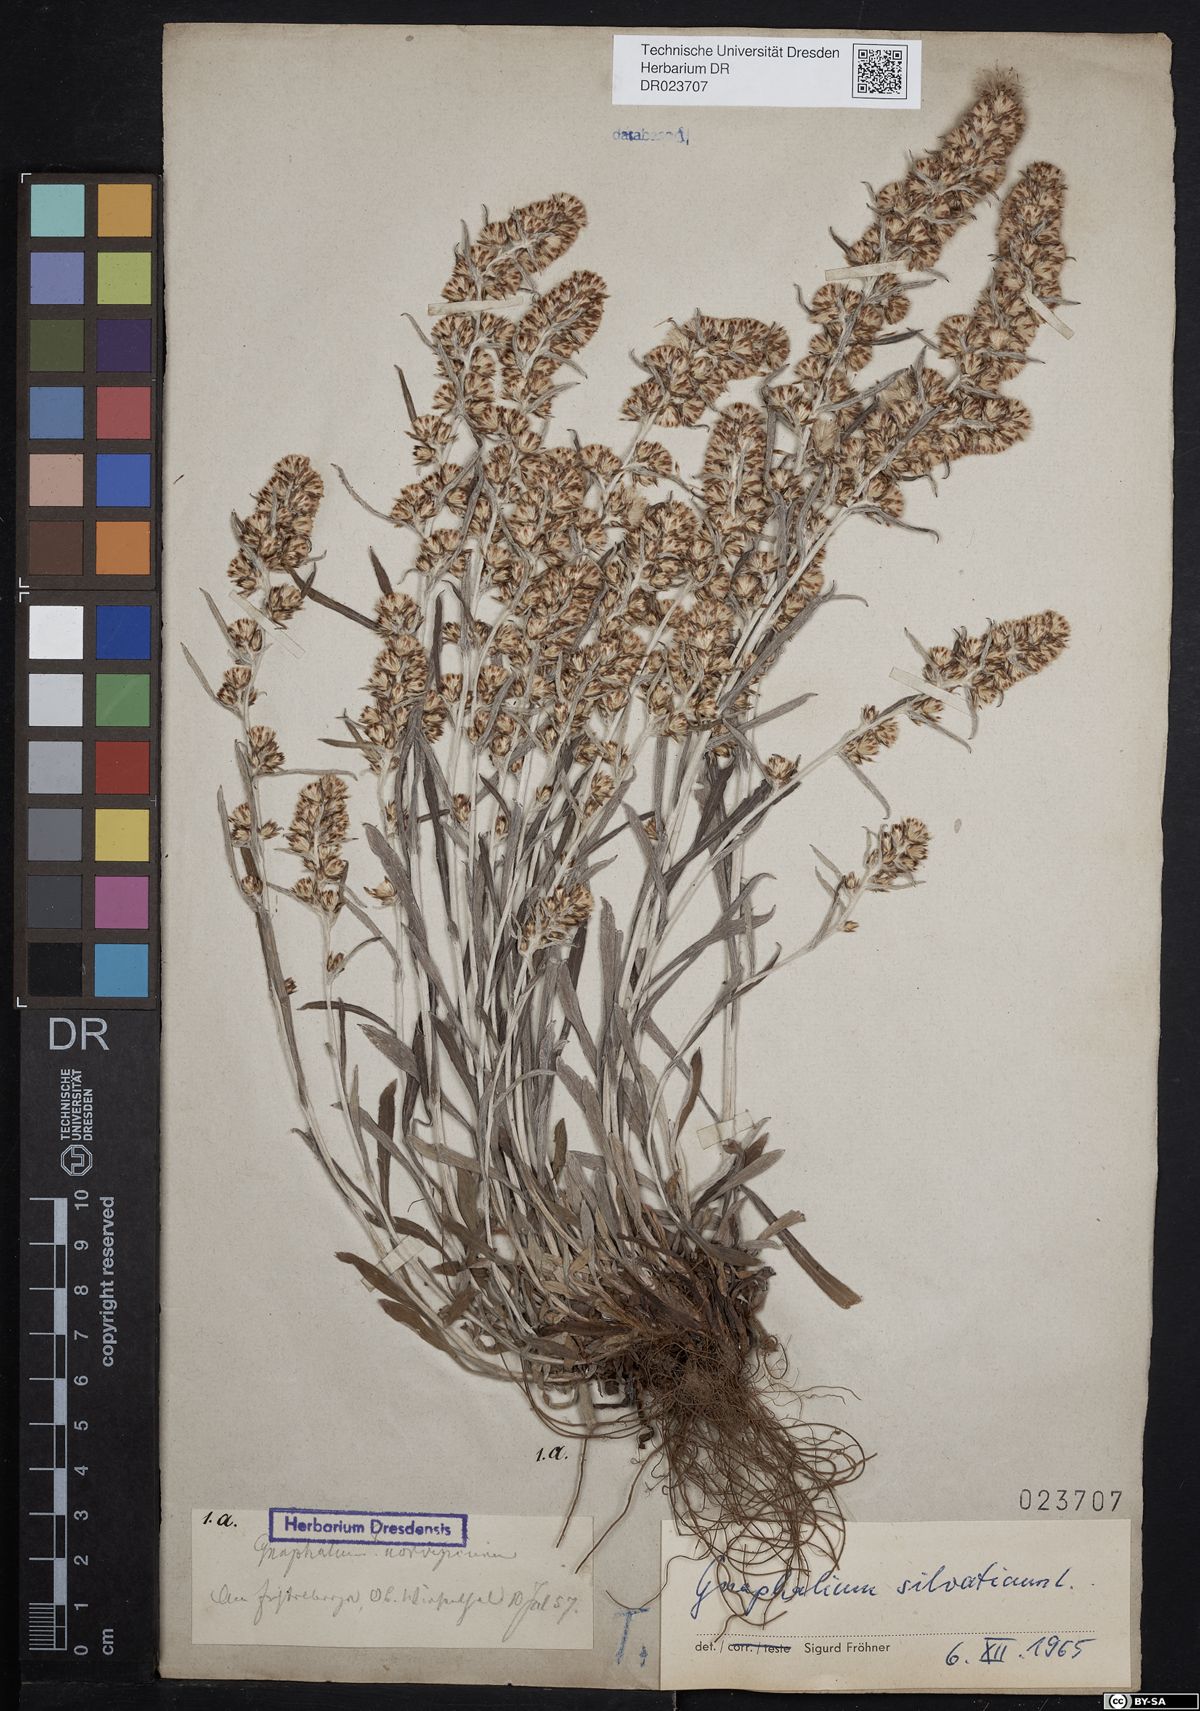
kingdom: Plantae
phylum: Tracheophyta
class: Magnoliopsida
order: Asterales
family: Asteraceae
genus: Omalotheca
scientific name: Omalotheca sylvatica
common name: Heath cudweed
